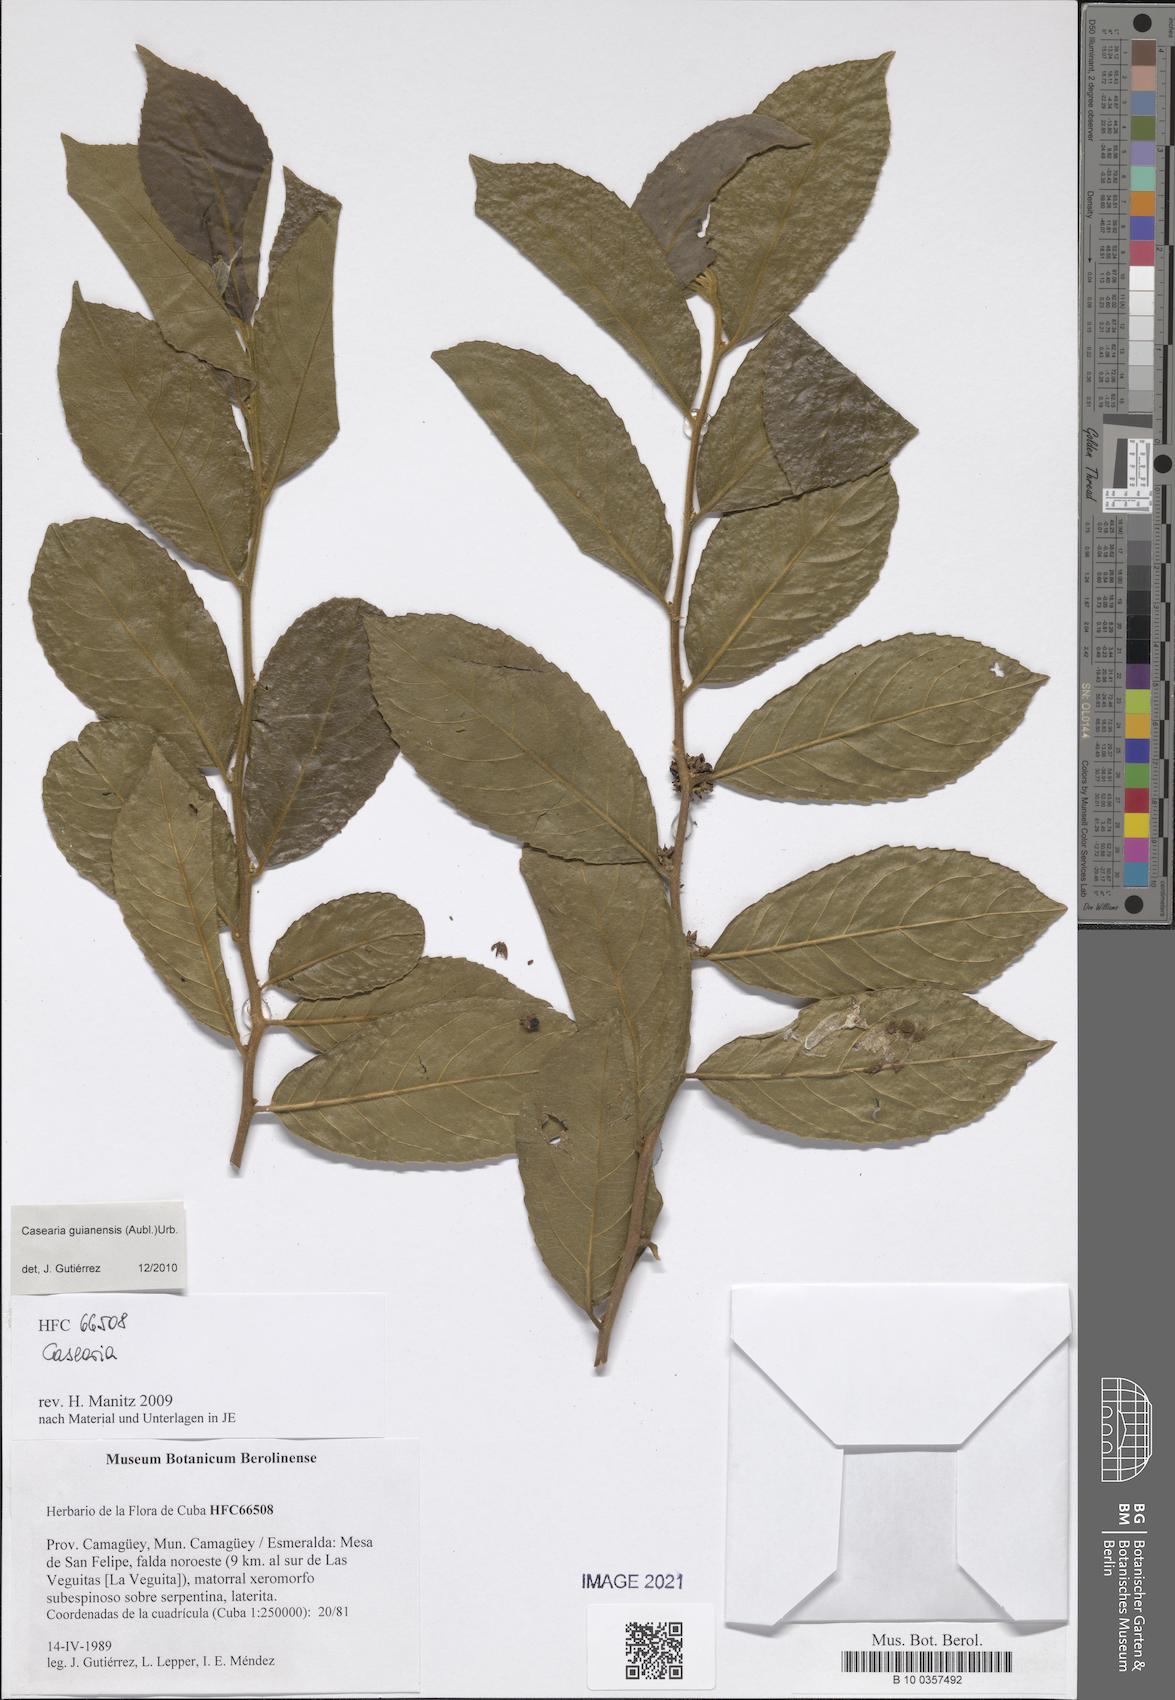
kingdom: Plantae
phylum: Tracheophyta
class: Magnoliopsida
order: Malpighiales
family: Salicaceae
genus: Casearia
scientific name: Casearia guianensis
